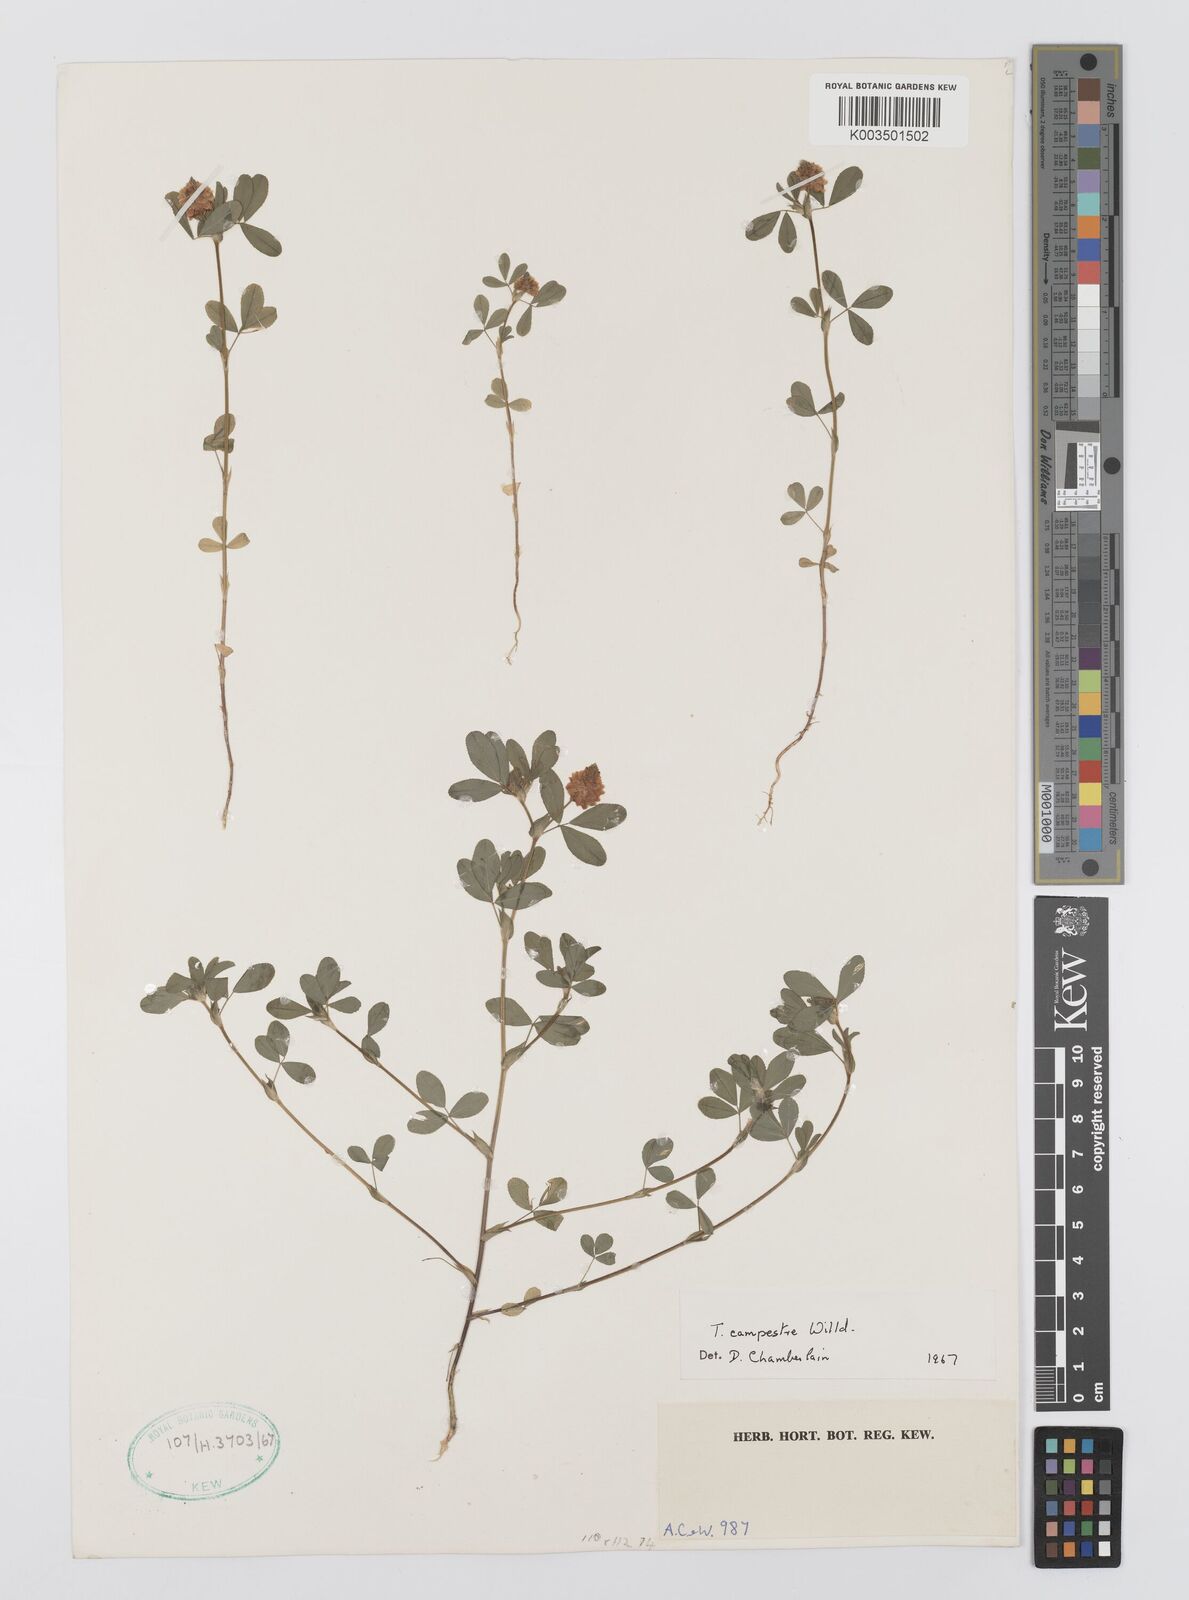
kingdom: Plantae
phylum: Tracheophyta
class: Magnoliopsida
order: Fabales
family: Fabaceae
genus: Trifolium
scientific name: Trifolium campestre
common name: Field clover
